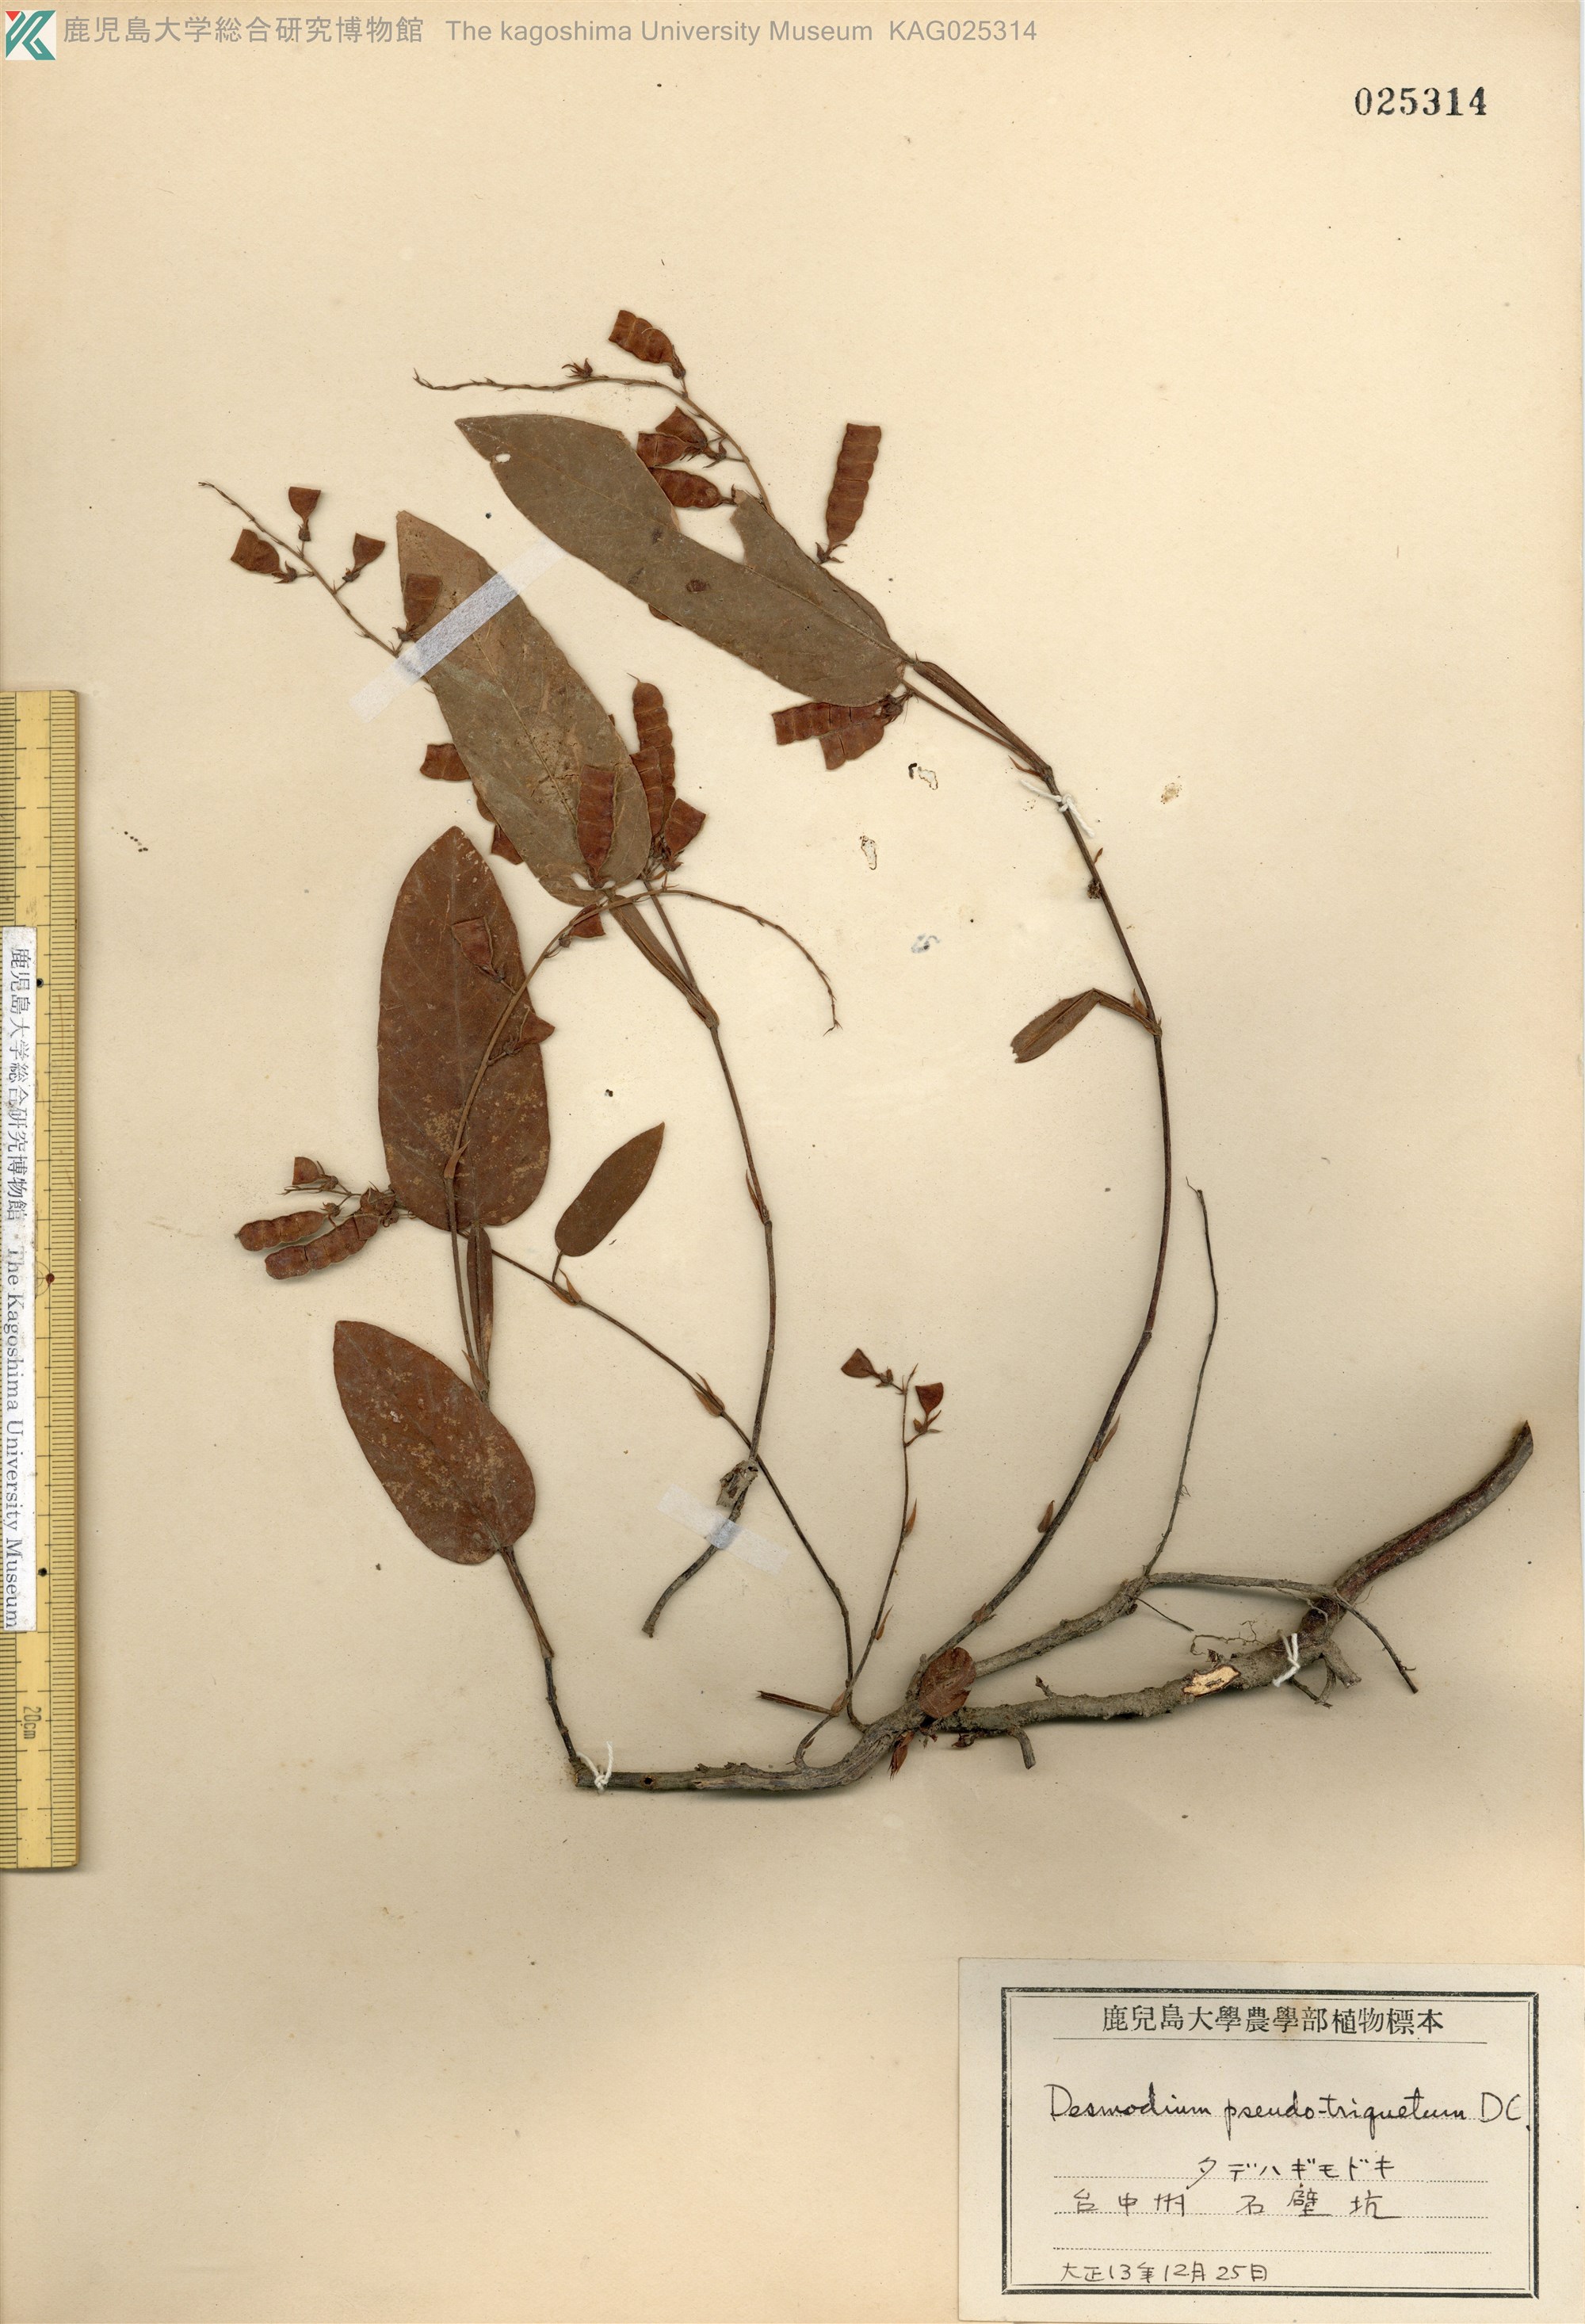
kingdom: Plantae
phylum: Tracheophyta
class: Magnoliopsida
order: Fabales
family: Fabaceae
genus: Tadehagi
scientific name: Tadehagi pseudotriquetrum
